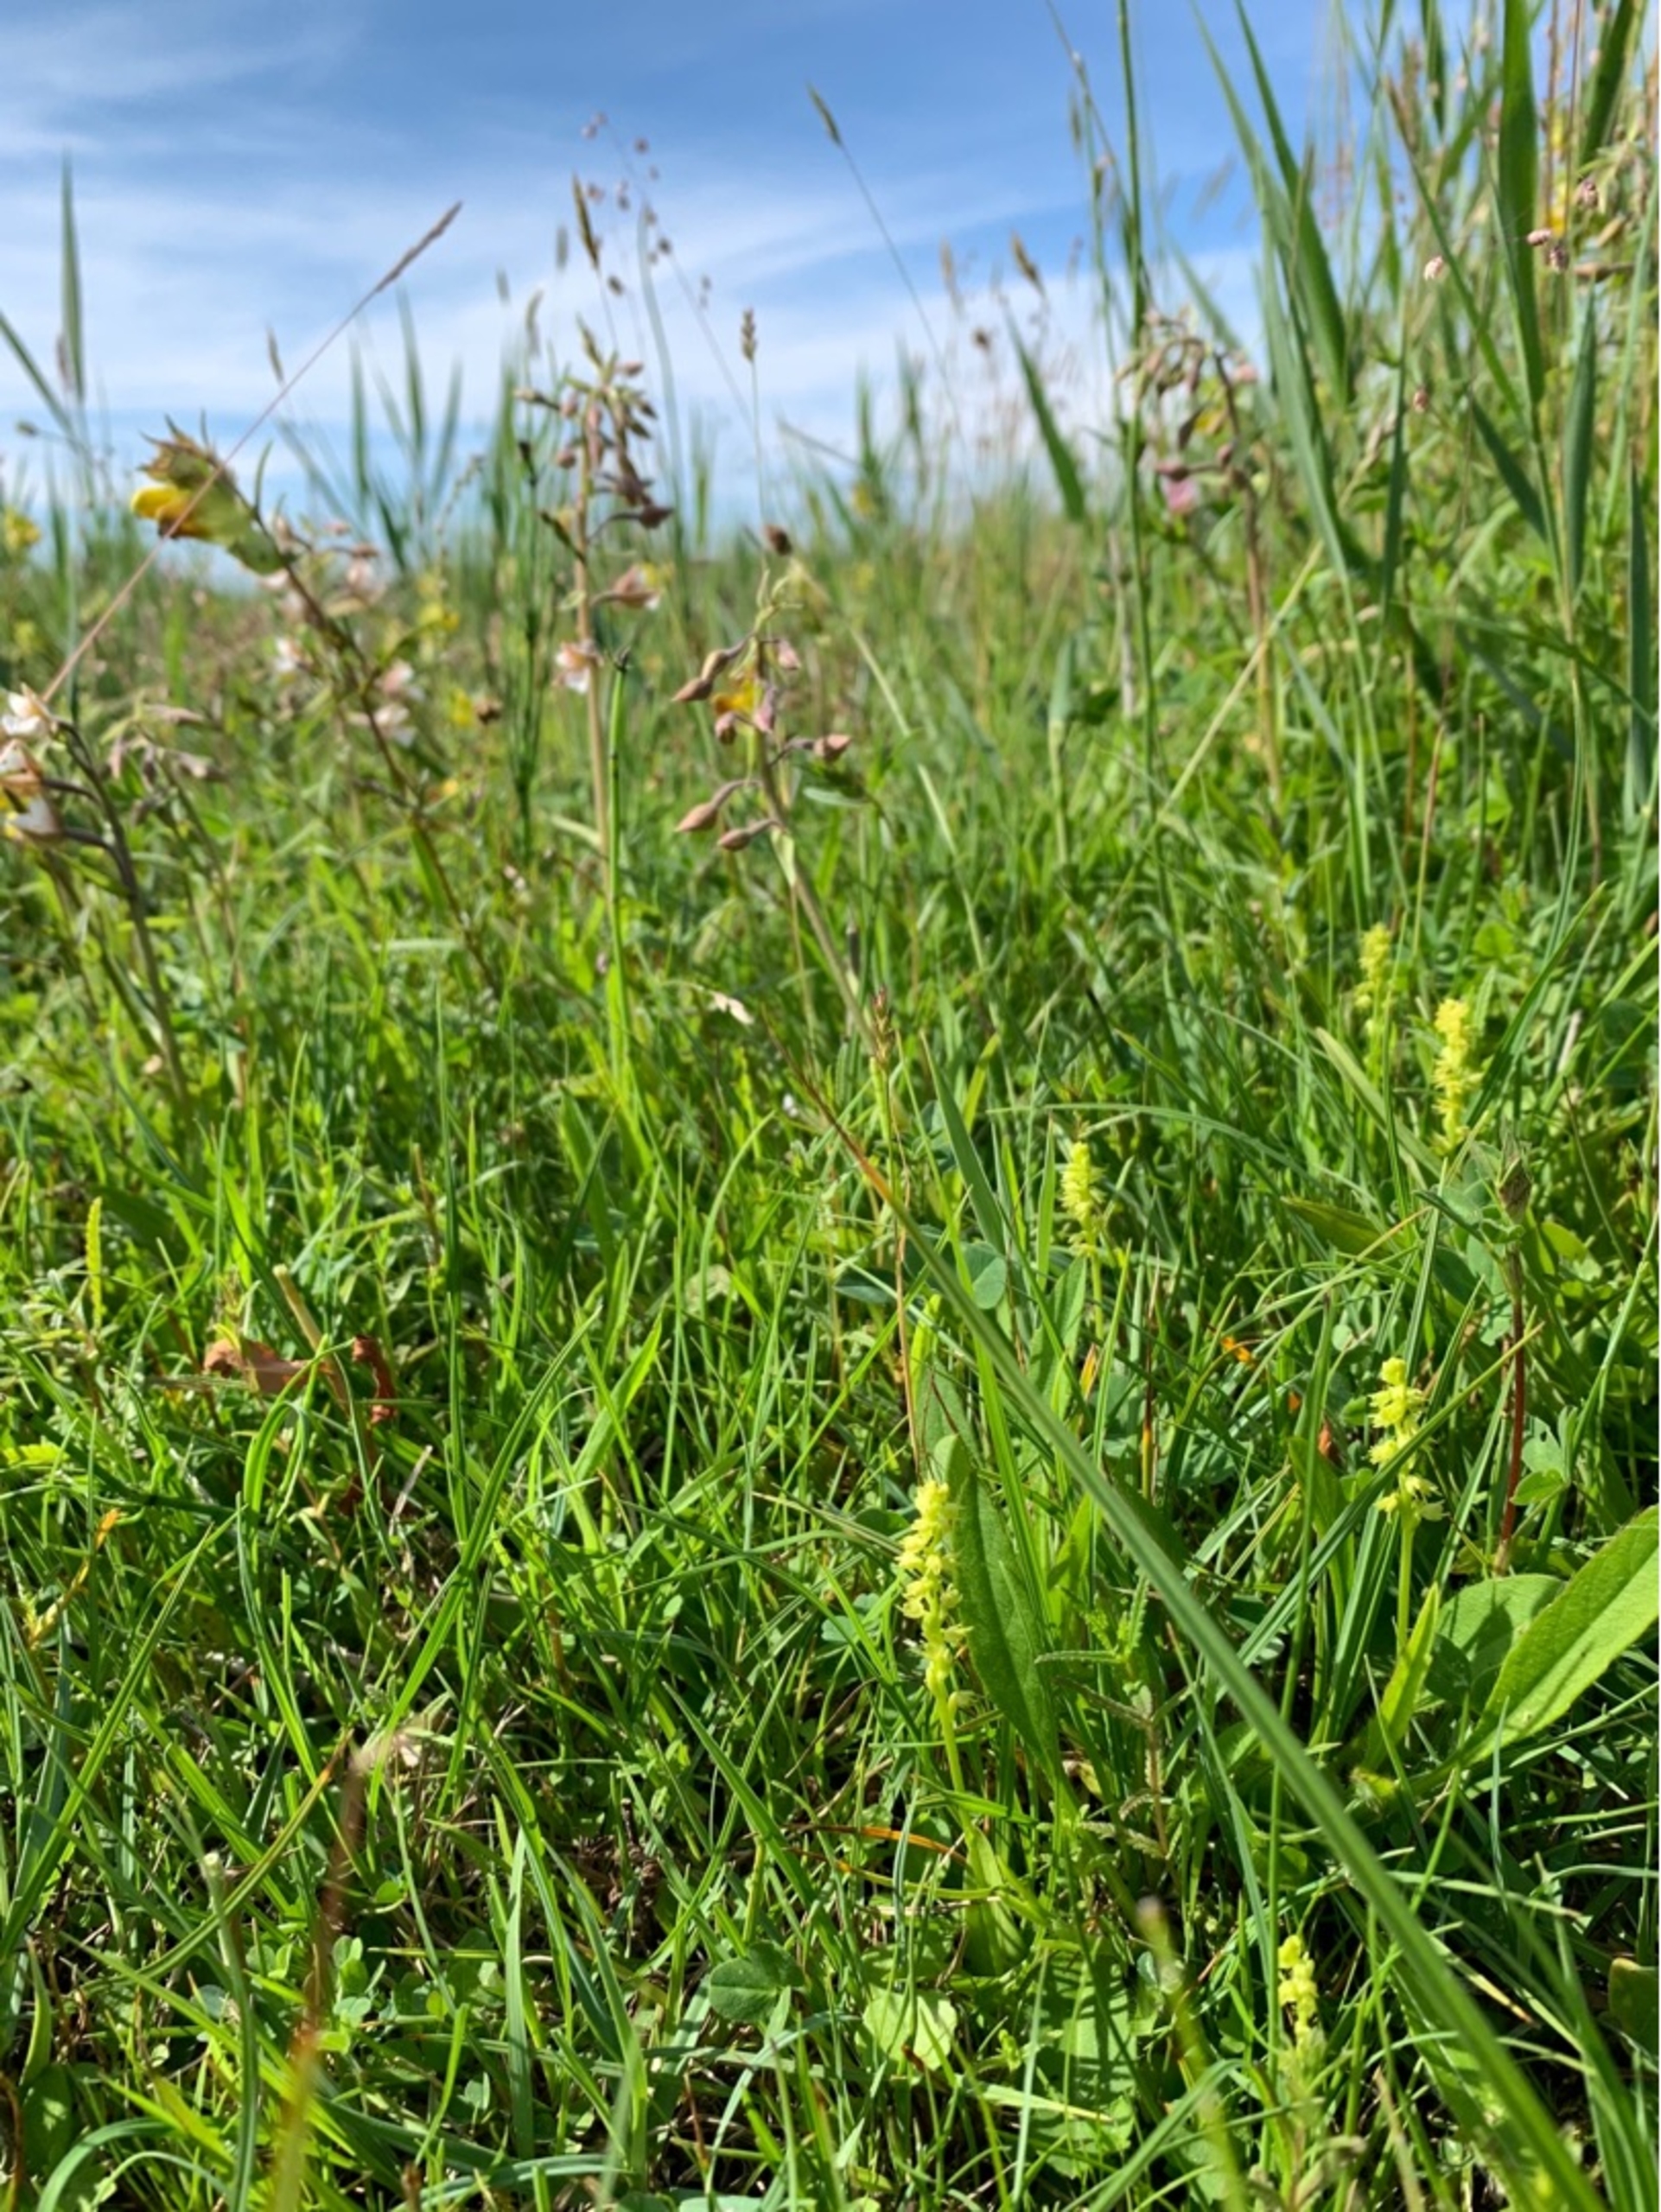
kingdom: Plantae
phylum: Tracheophyta
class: Liliopsida
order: Asparagales
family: Orchidaceae
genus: Herminium
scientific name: Herminium monorchis
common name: Pukkellæbe
